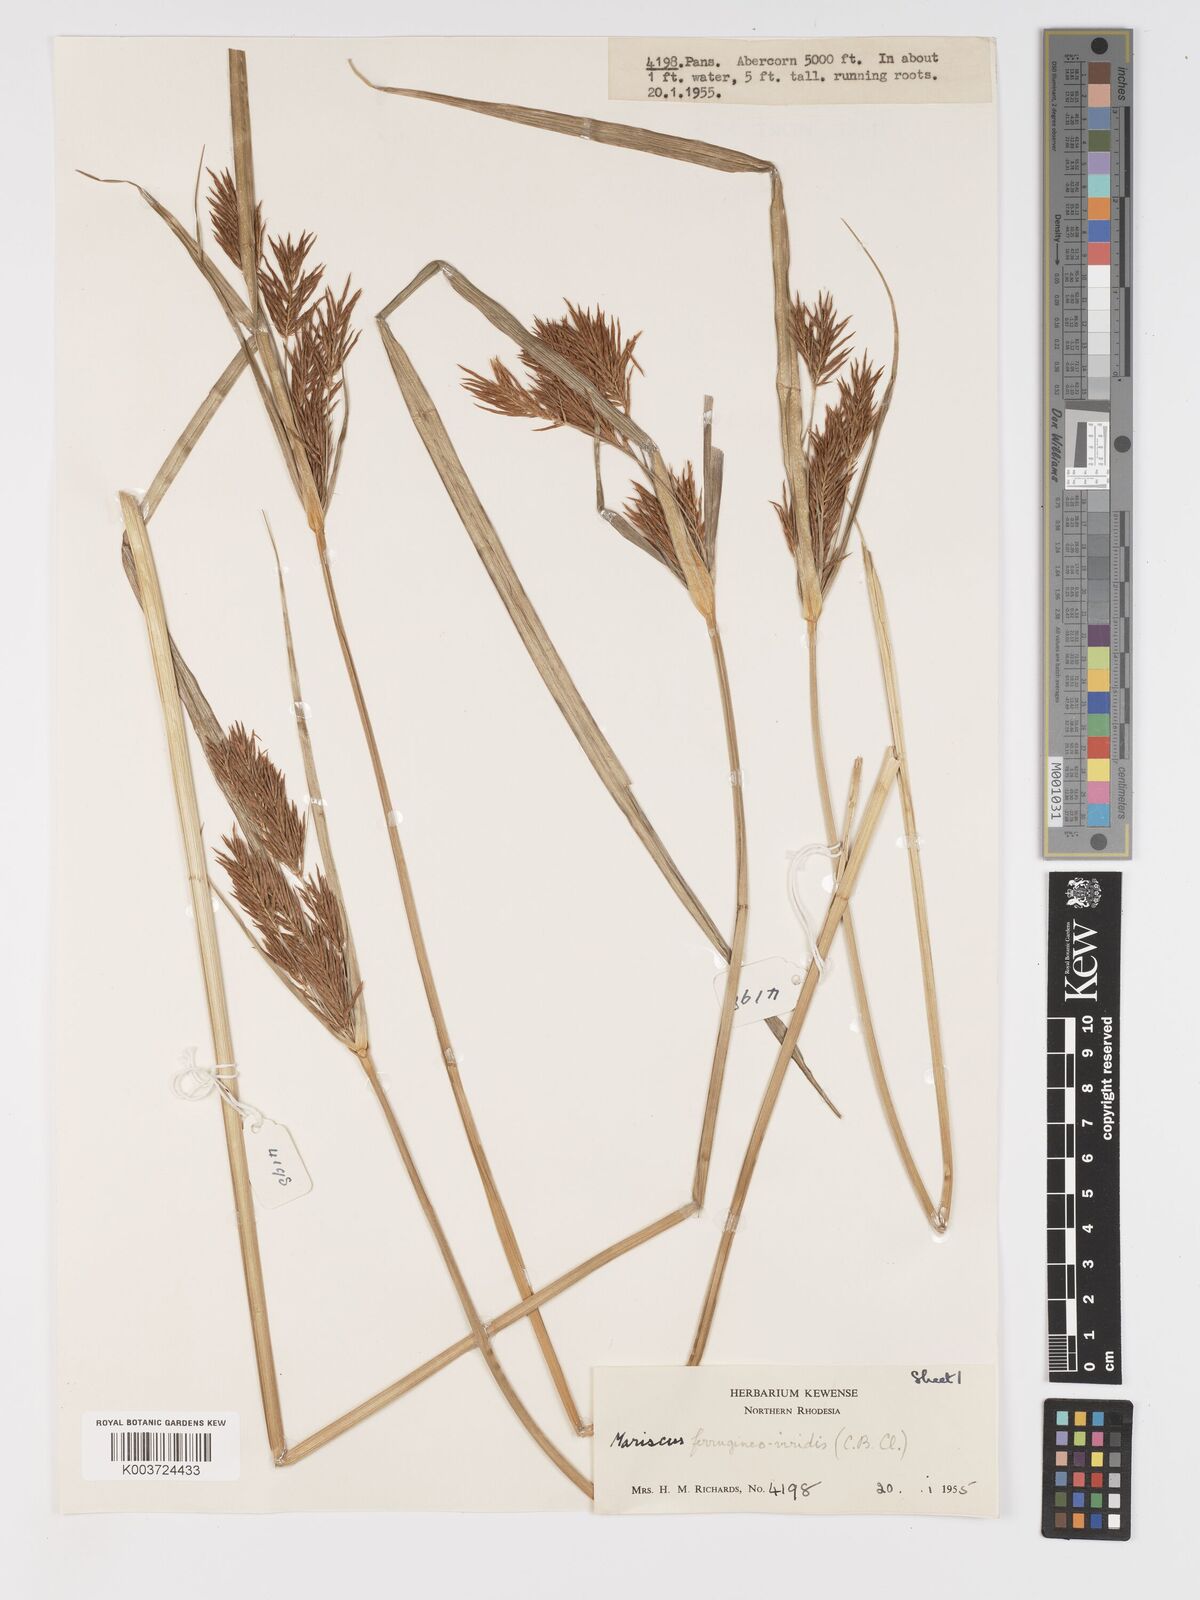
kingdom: Plantae
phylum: Tracheophyta
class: Liliopsida
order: Poales
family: Cyperaceae
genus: Cyperus
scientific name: Cyperus ferrugineoviridis
